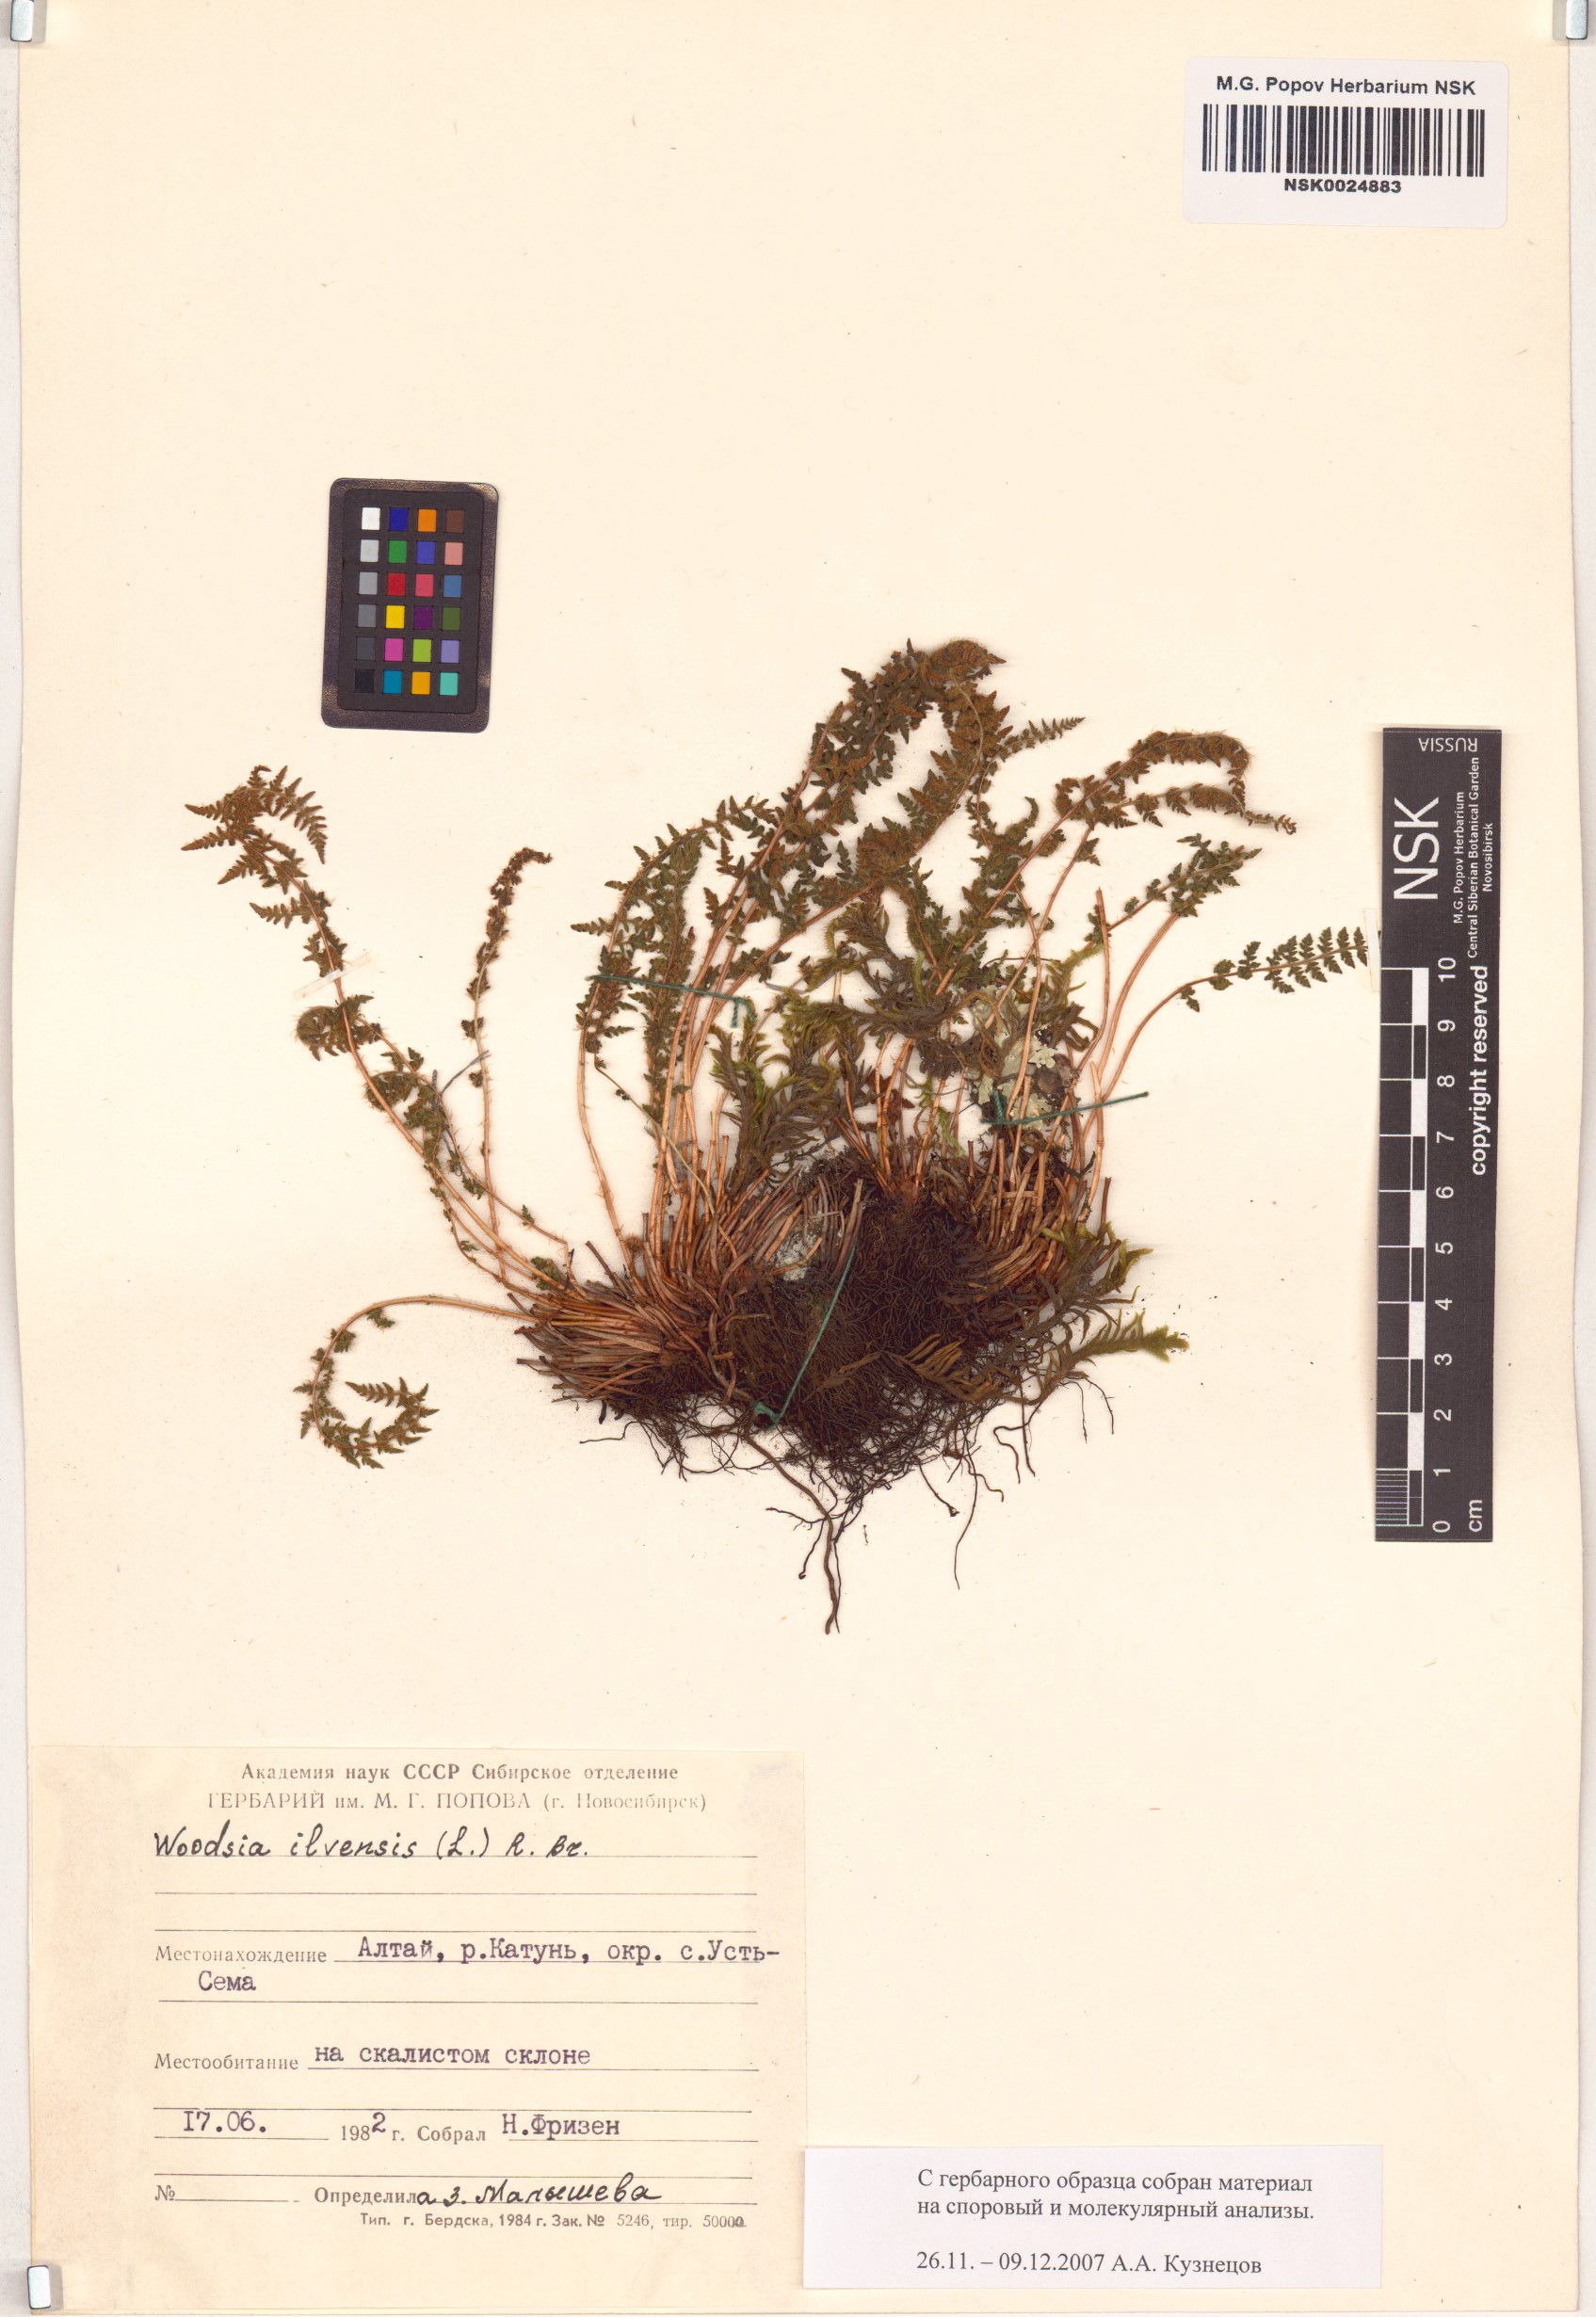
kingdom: Plantae
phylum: Tracheophyta
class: Polypodiopsida
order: Polypodiales
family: Woodsiaceae
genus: Woodsia
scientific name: Woodsia ilvensis
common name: Fragrant woodsia
